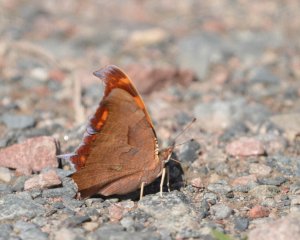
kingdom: Animalia
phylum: Arthropoda
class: Insecta
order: Lepidoptera
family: Nymphalidae
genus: Polygonia
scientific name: Polygonia interrogationis
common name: Question Mark
